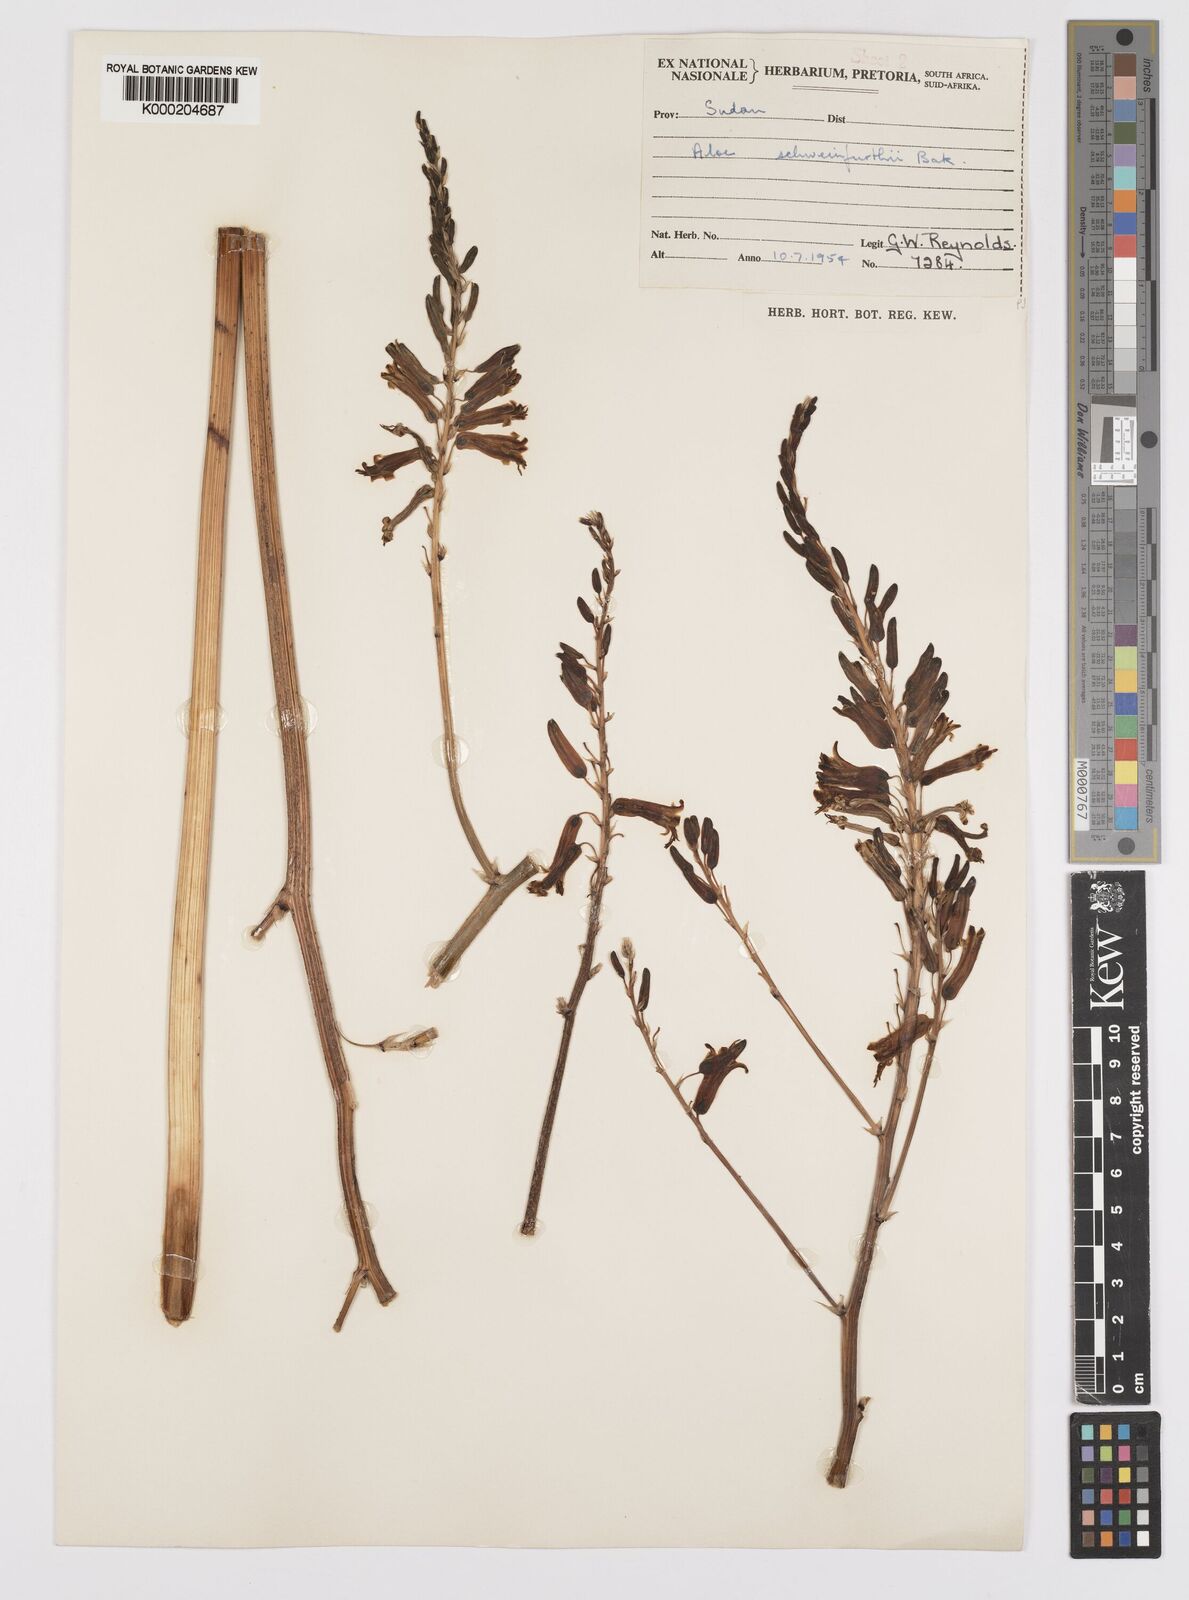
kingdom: Plantae
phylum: Tracheophyta
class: Liliopsida
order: Asparagales
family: Asphodelaceae
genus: Aloe
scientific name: Aloe schweinfurthii
